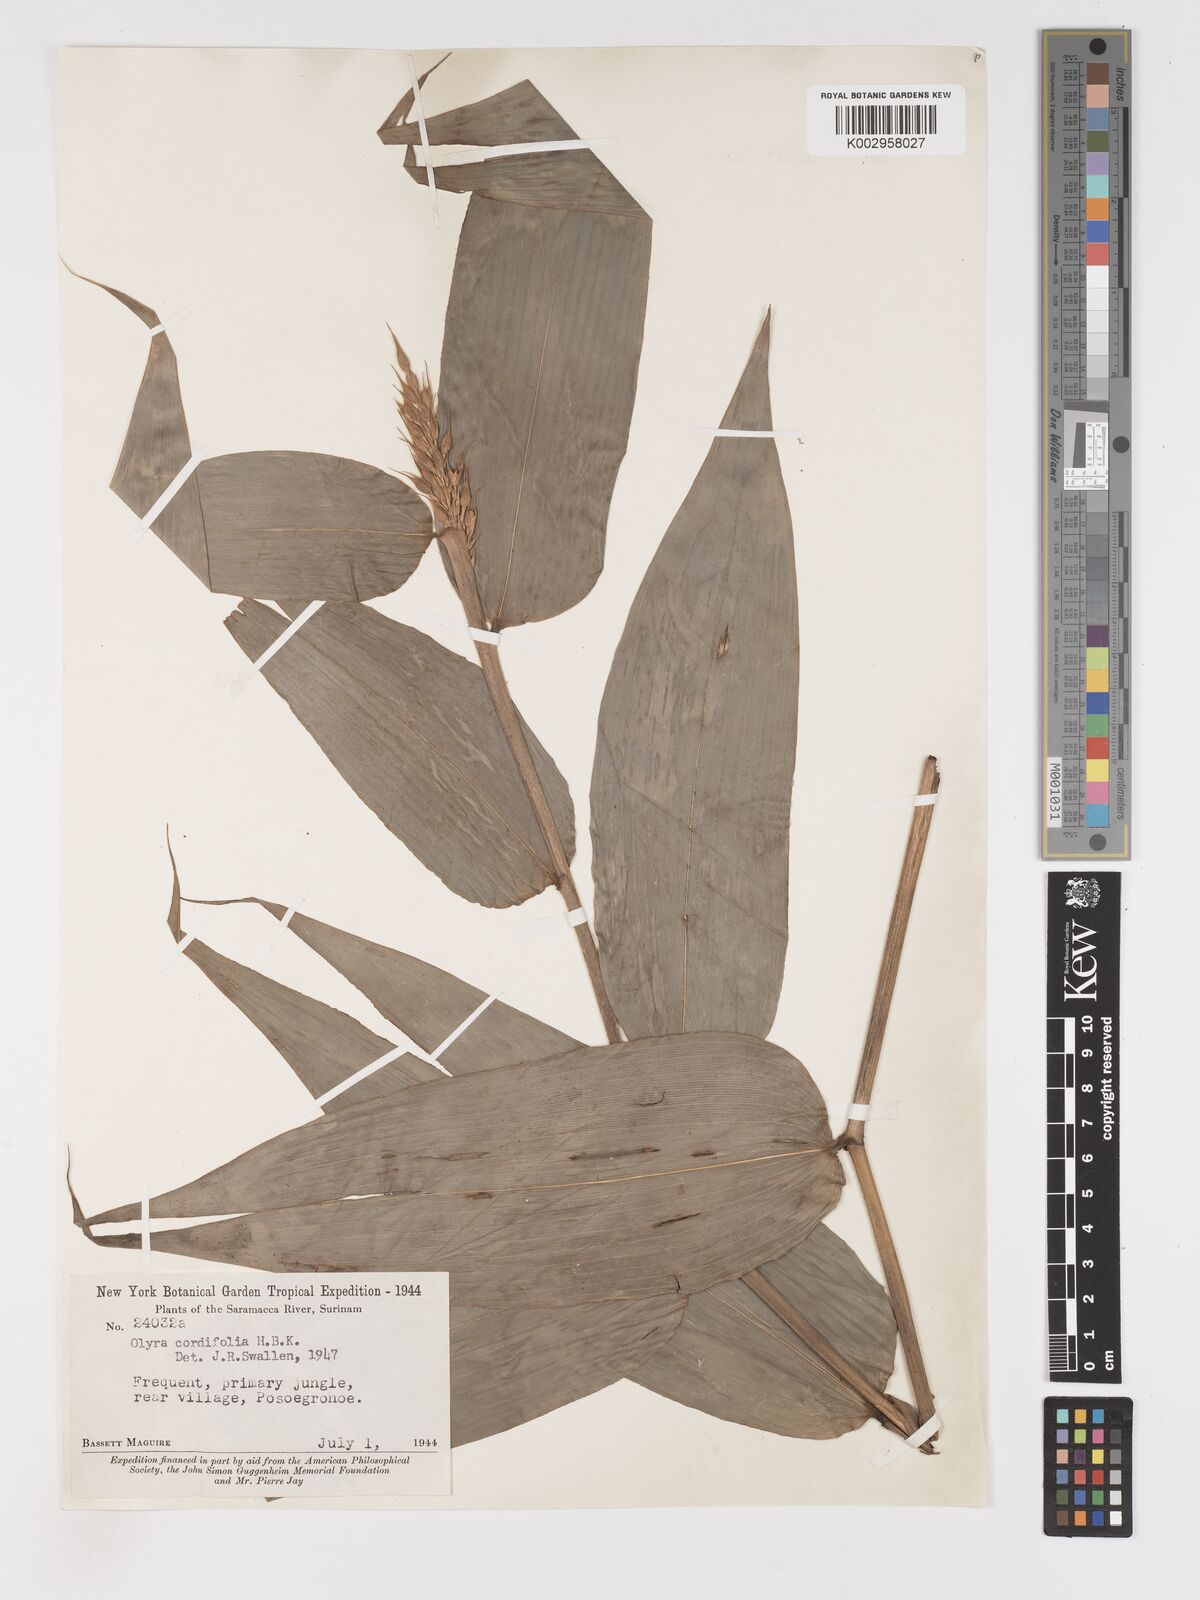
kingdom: Plantae
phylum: Tracheophyta
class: Liliopsida
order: Poales
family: Poaceae
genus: Olyra
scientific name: Olyra latifolia
